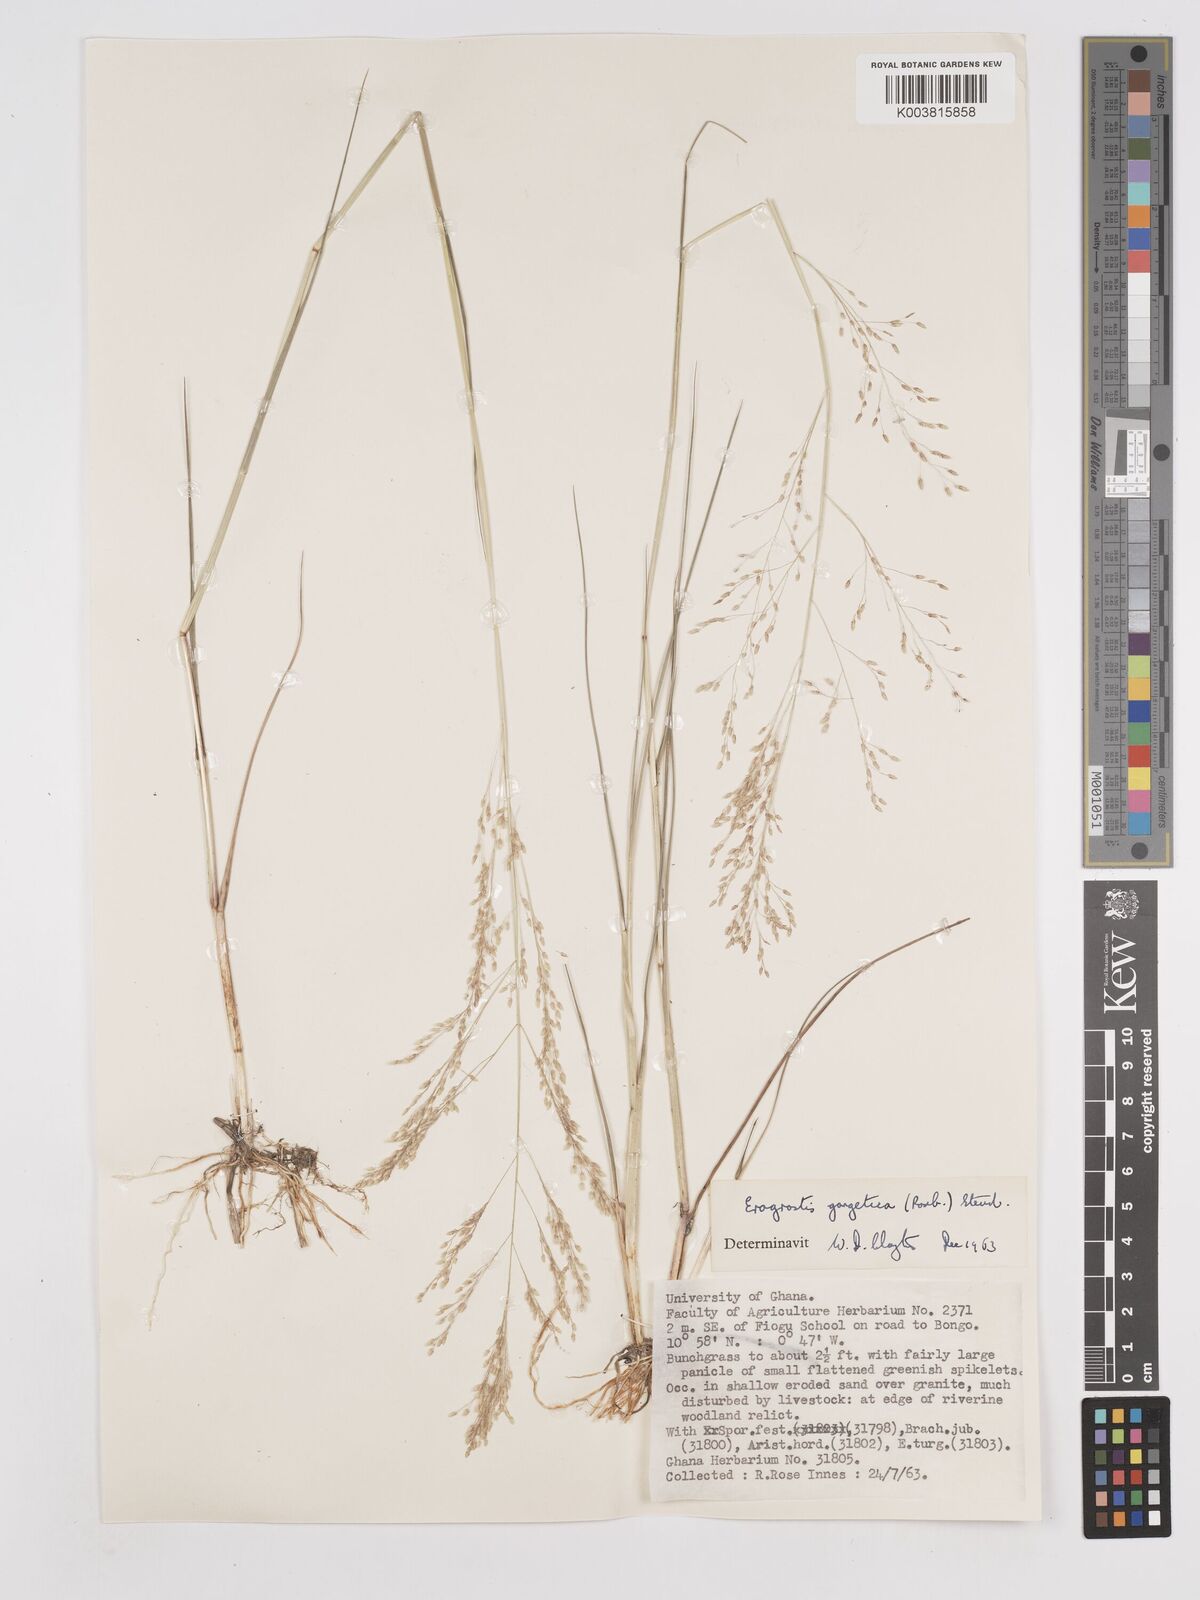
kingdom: Plantae
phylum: Tracheophyta
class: Liliopsida
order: Poales
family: Poaceae
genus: Eragrostis
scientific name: Eragrostis gangetica
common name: Slimflower lovegrass
